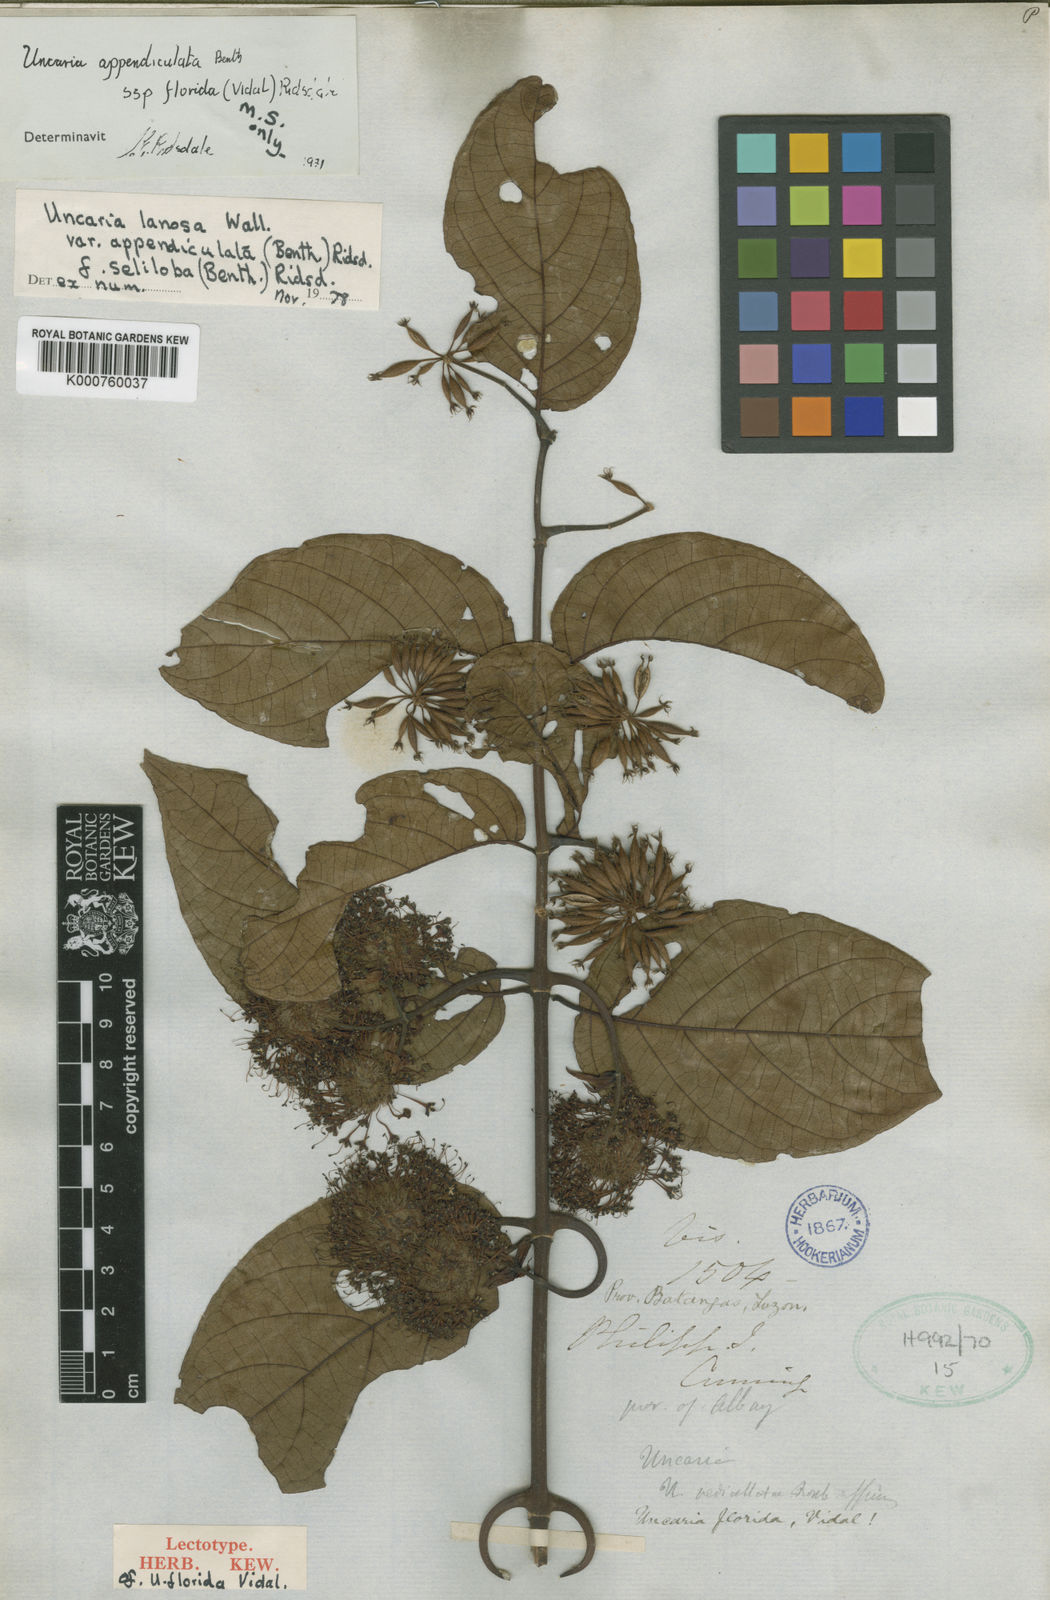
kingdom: Plantae
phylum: Tracheophyta
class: Magnoliopsida
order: Gentianales
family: Rubiaceae
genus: Uncaria
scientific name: Uncaria lanosa
